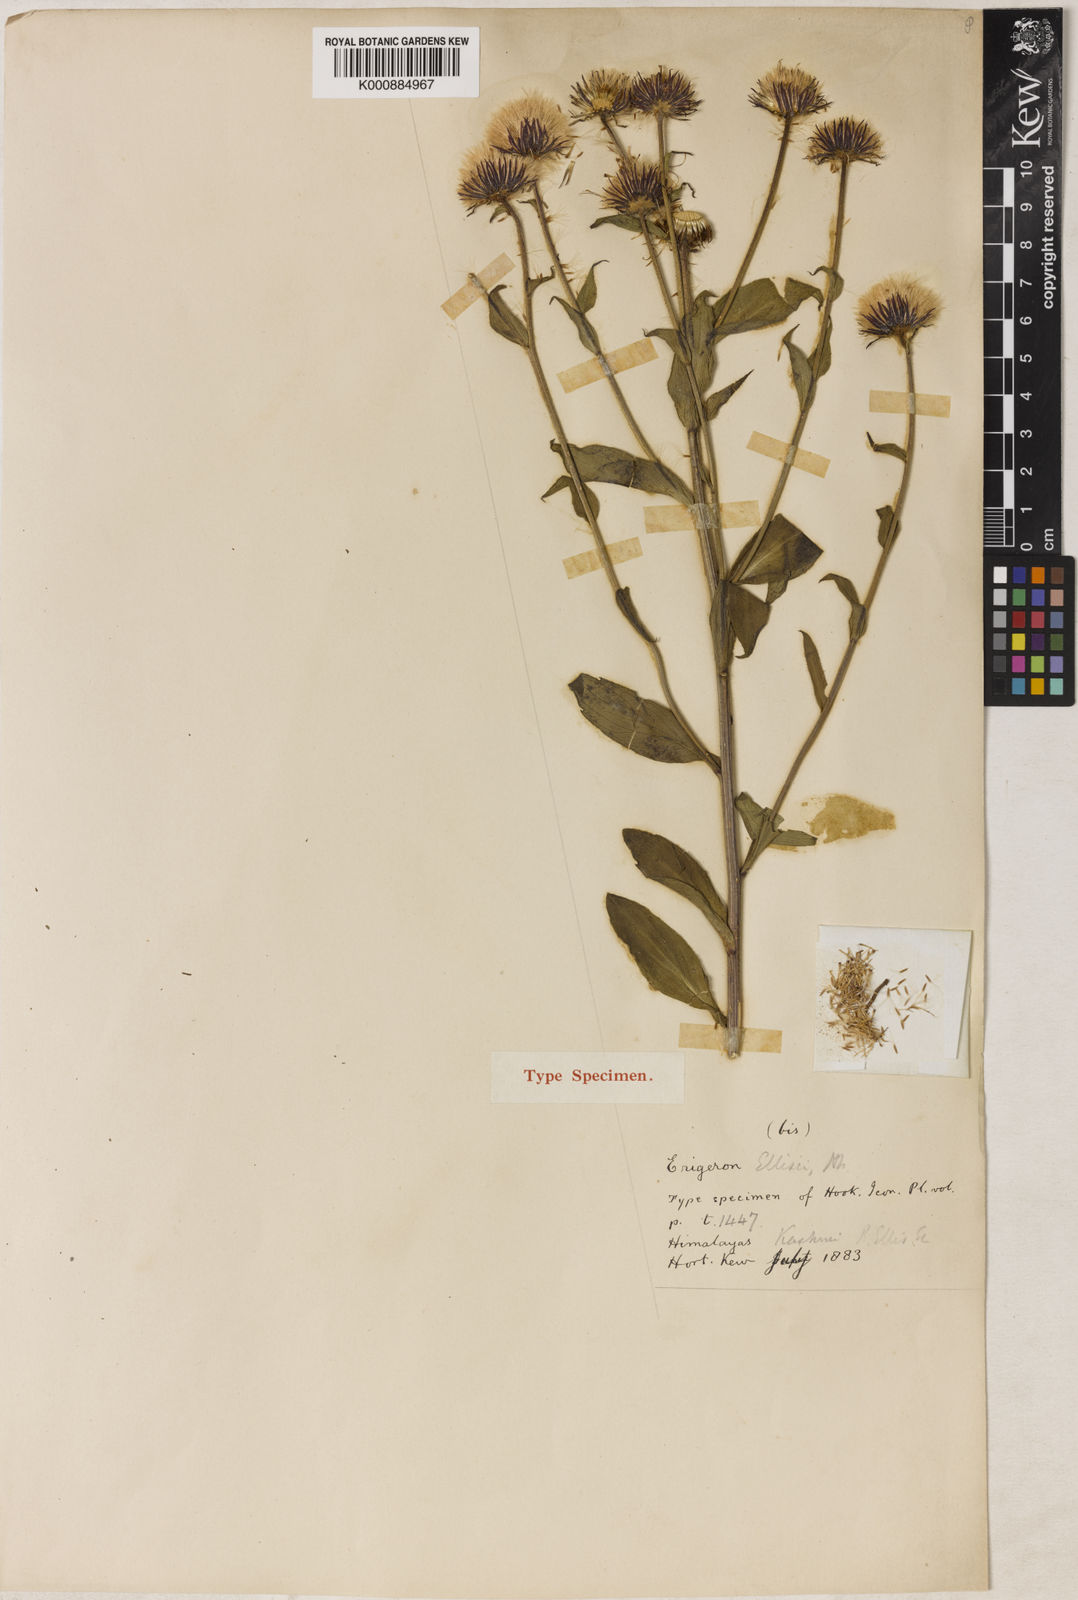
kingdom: Plantae
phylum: Tracheophyta
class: Magnoliopsida
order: Asterales
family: Asteraceae
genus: Erigeron
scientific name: Erigeron semibarbatus
